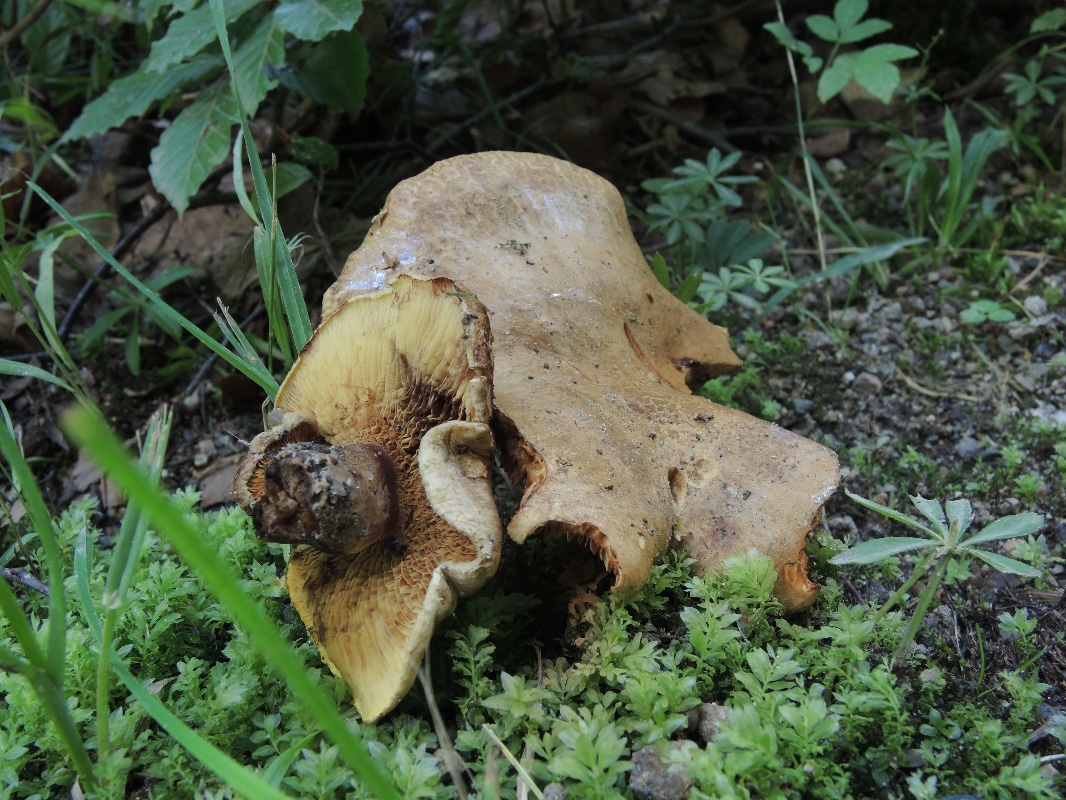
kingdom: Fungi
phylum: Basidiomycota
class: Agaricomycetes
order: Boletales
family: Paxillaceae
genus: Paxillus
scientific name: Paxillus rubicundulus
